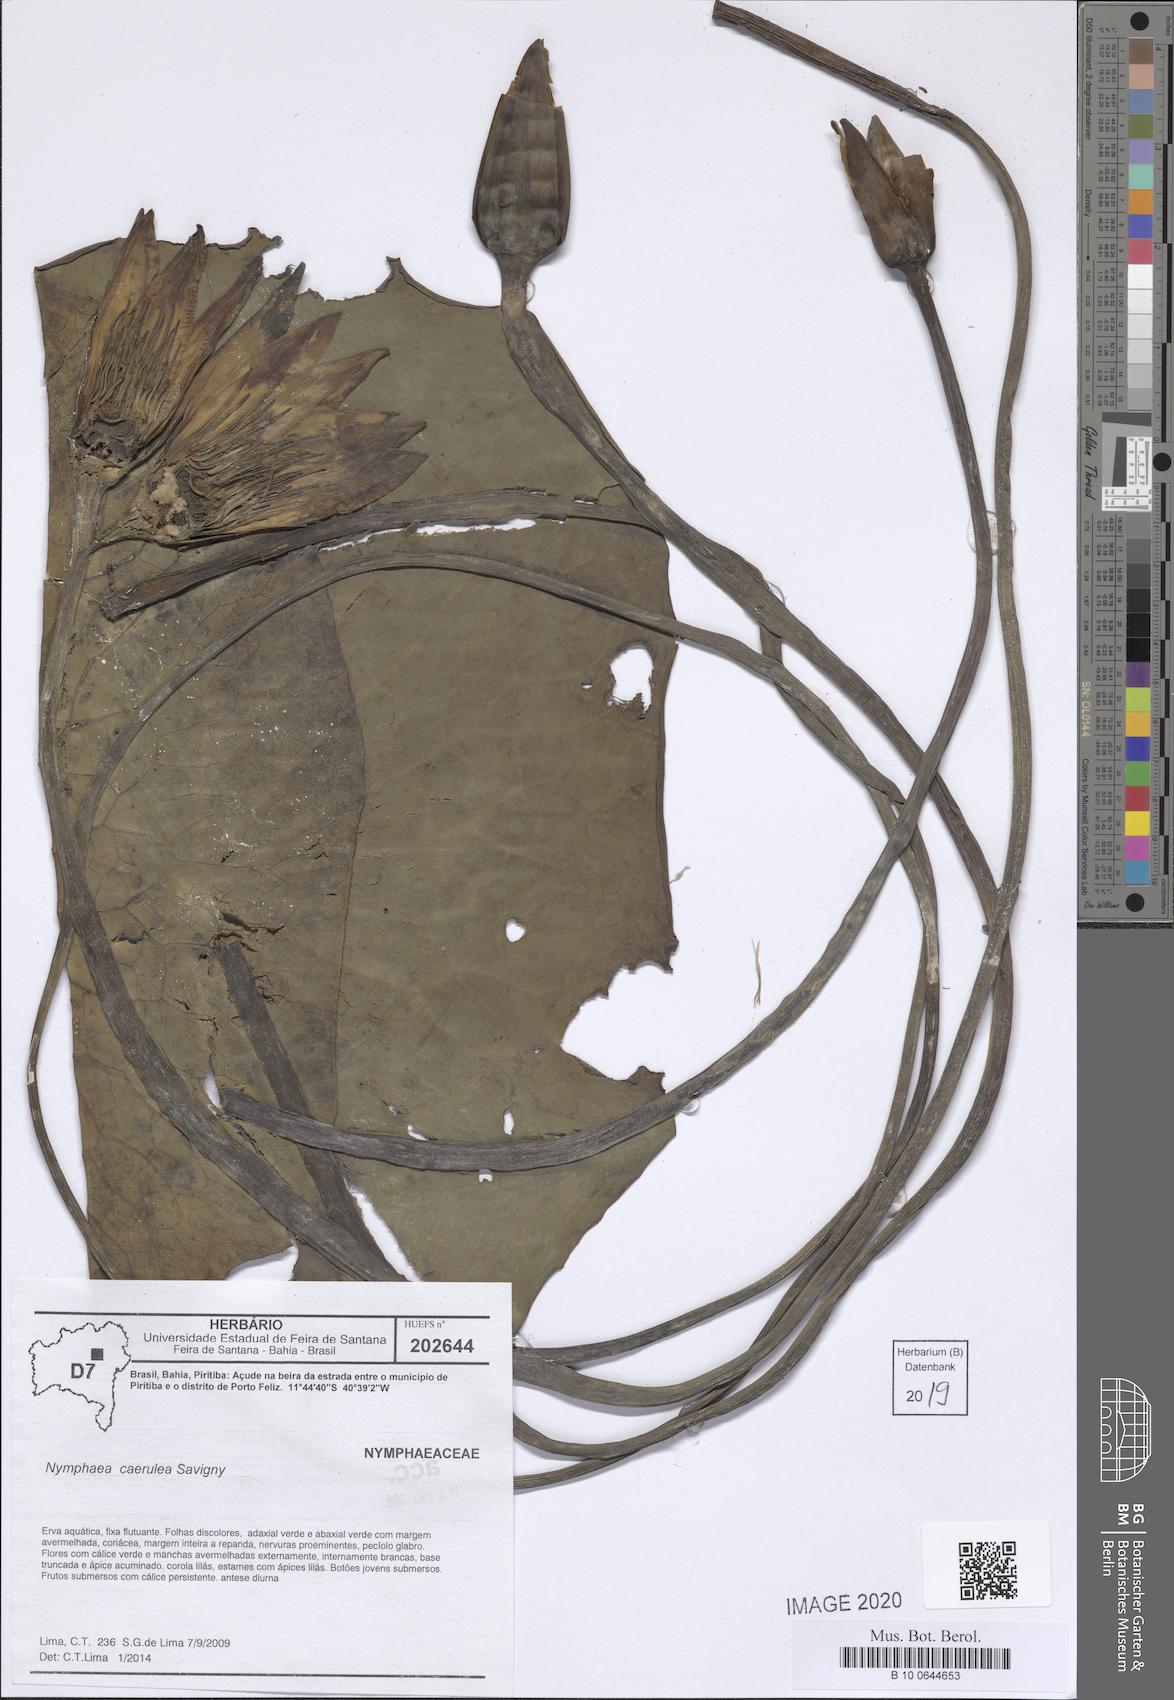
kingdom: Plantae
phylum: Tracheophyta
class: Magnoliopsida
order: Nymphaeales
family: Nymphaeaceae
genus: Nymphaea
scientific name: Nymphaea
